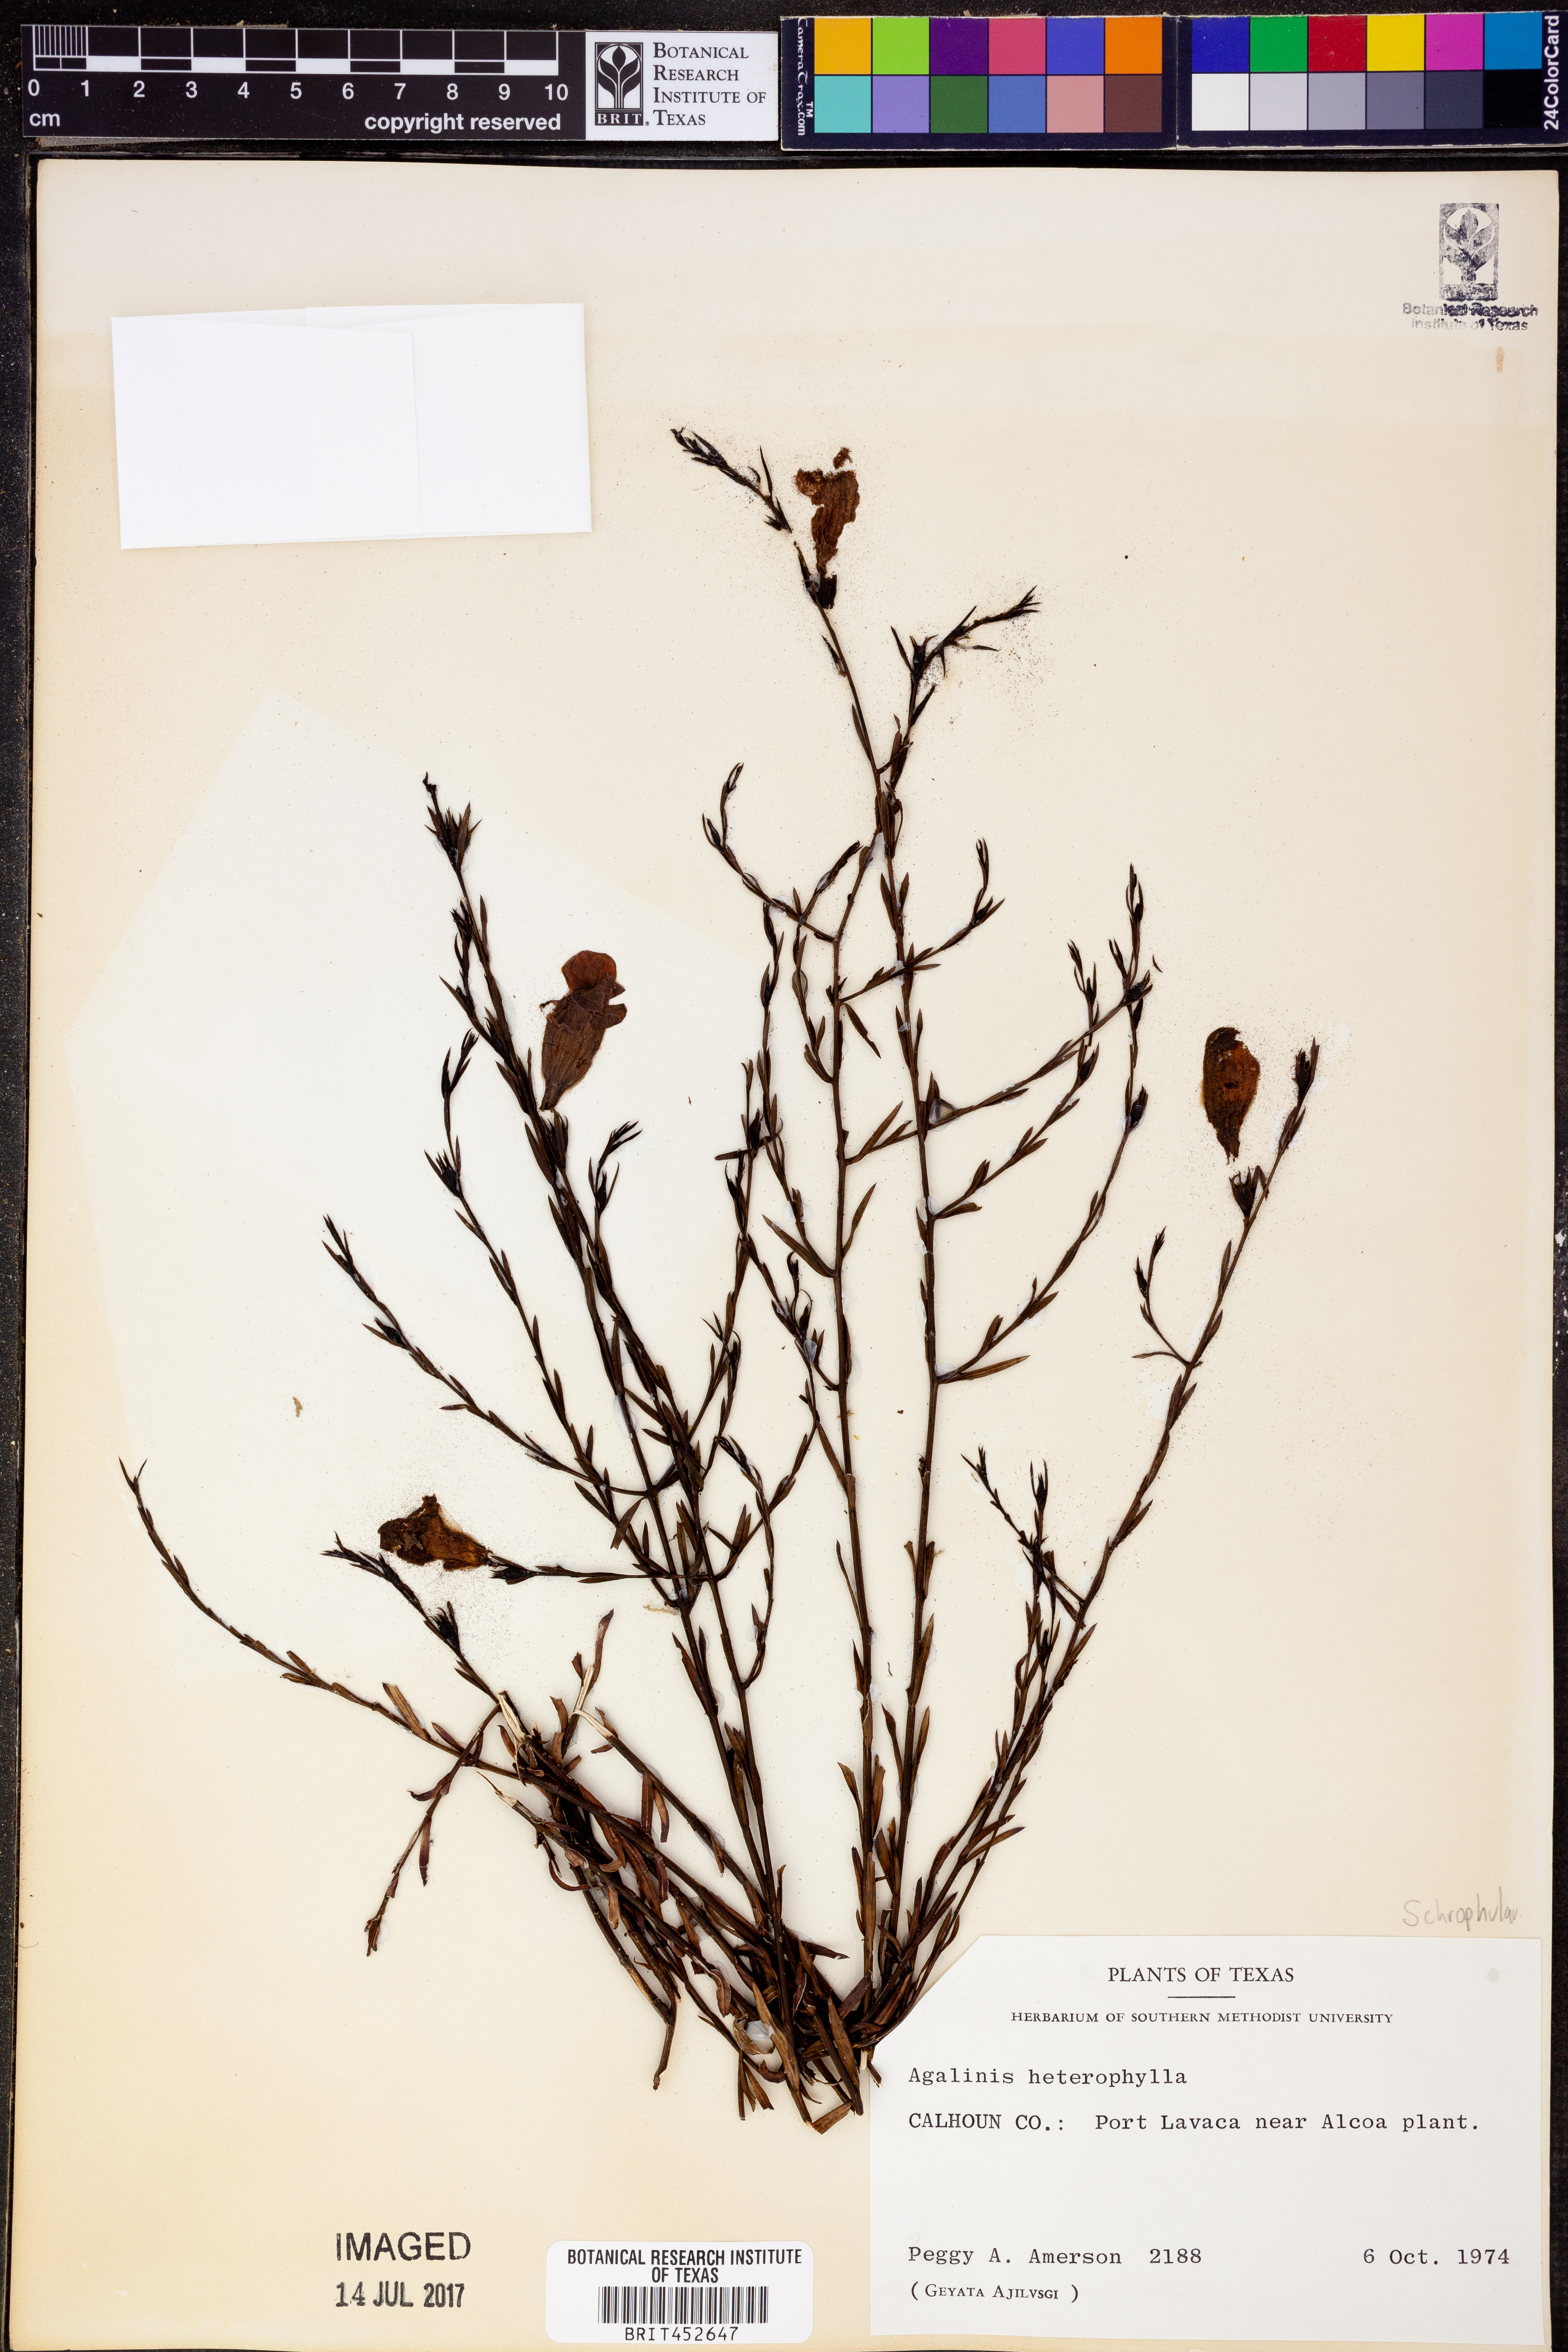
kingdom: Plantae
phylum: Tracheophyta
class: Magnoliopsida
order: Lamiales
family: Orobanchaceae
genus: Agalinis
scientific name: Agalinis heterophylla
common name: Prairie agalinis
